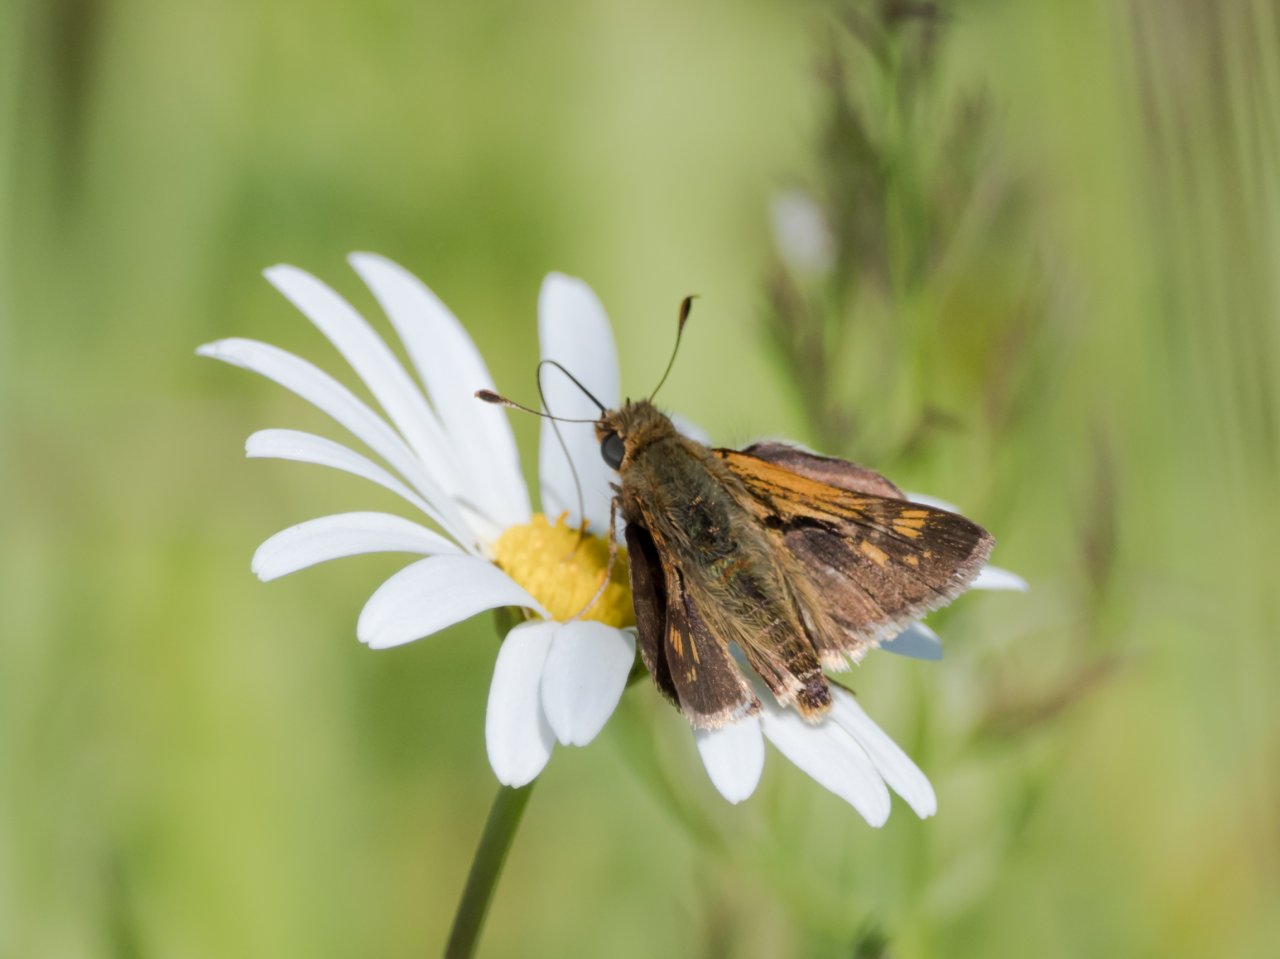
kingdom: Animalia
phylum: Arthropoda
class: Insecta
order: Lepidoptera
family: Hesperiidae
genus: Polites
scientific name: Polites
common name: Crossline Skipper
